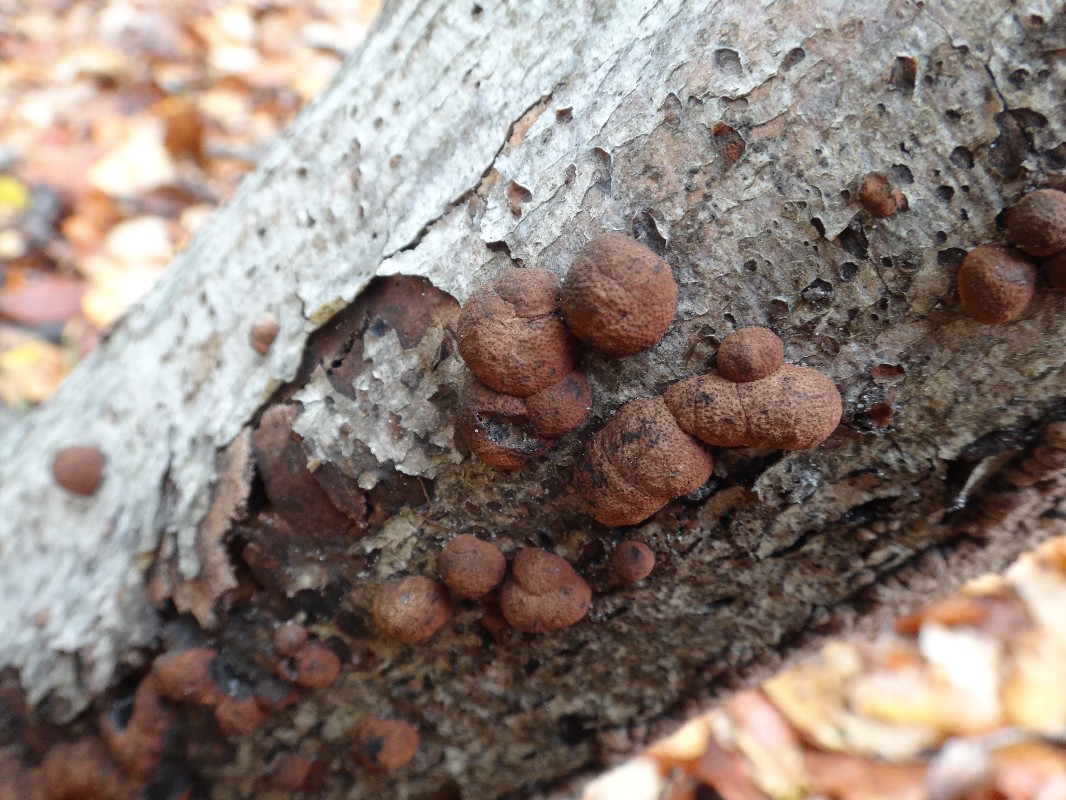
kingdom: Fungi
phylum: Ascomycota
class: Sordariomycetes
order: Xylariales
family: Hypoxylaceae
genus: Hypoxylon
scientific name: Hypoxylon fragiforme
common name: kuljordbær
